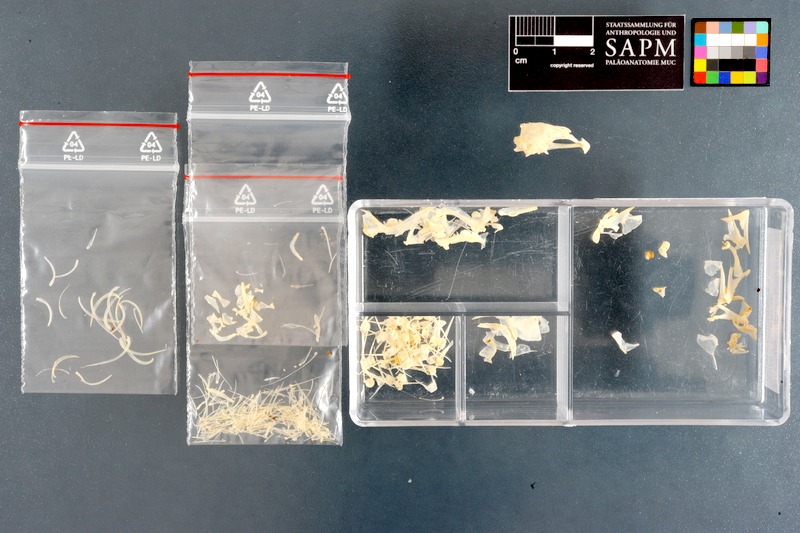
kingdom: Animalia
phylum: Chordata
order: Perciformes
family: Clinidae
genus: Clinus
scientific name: Clinus superciliosus
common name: Super klipfish
